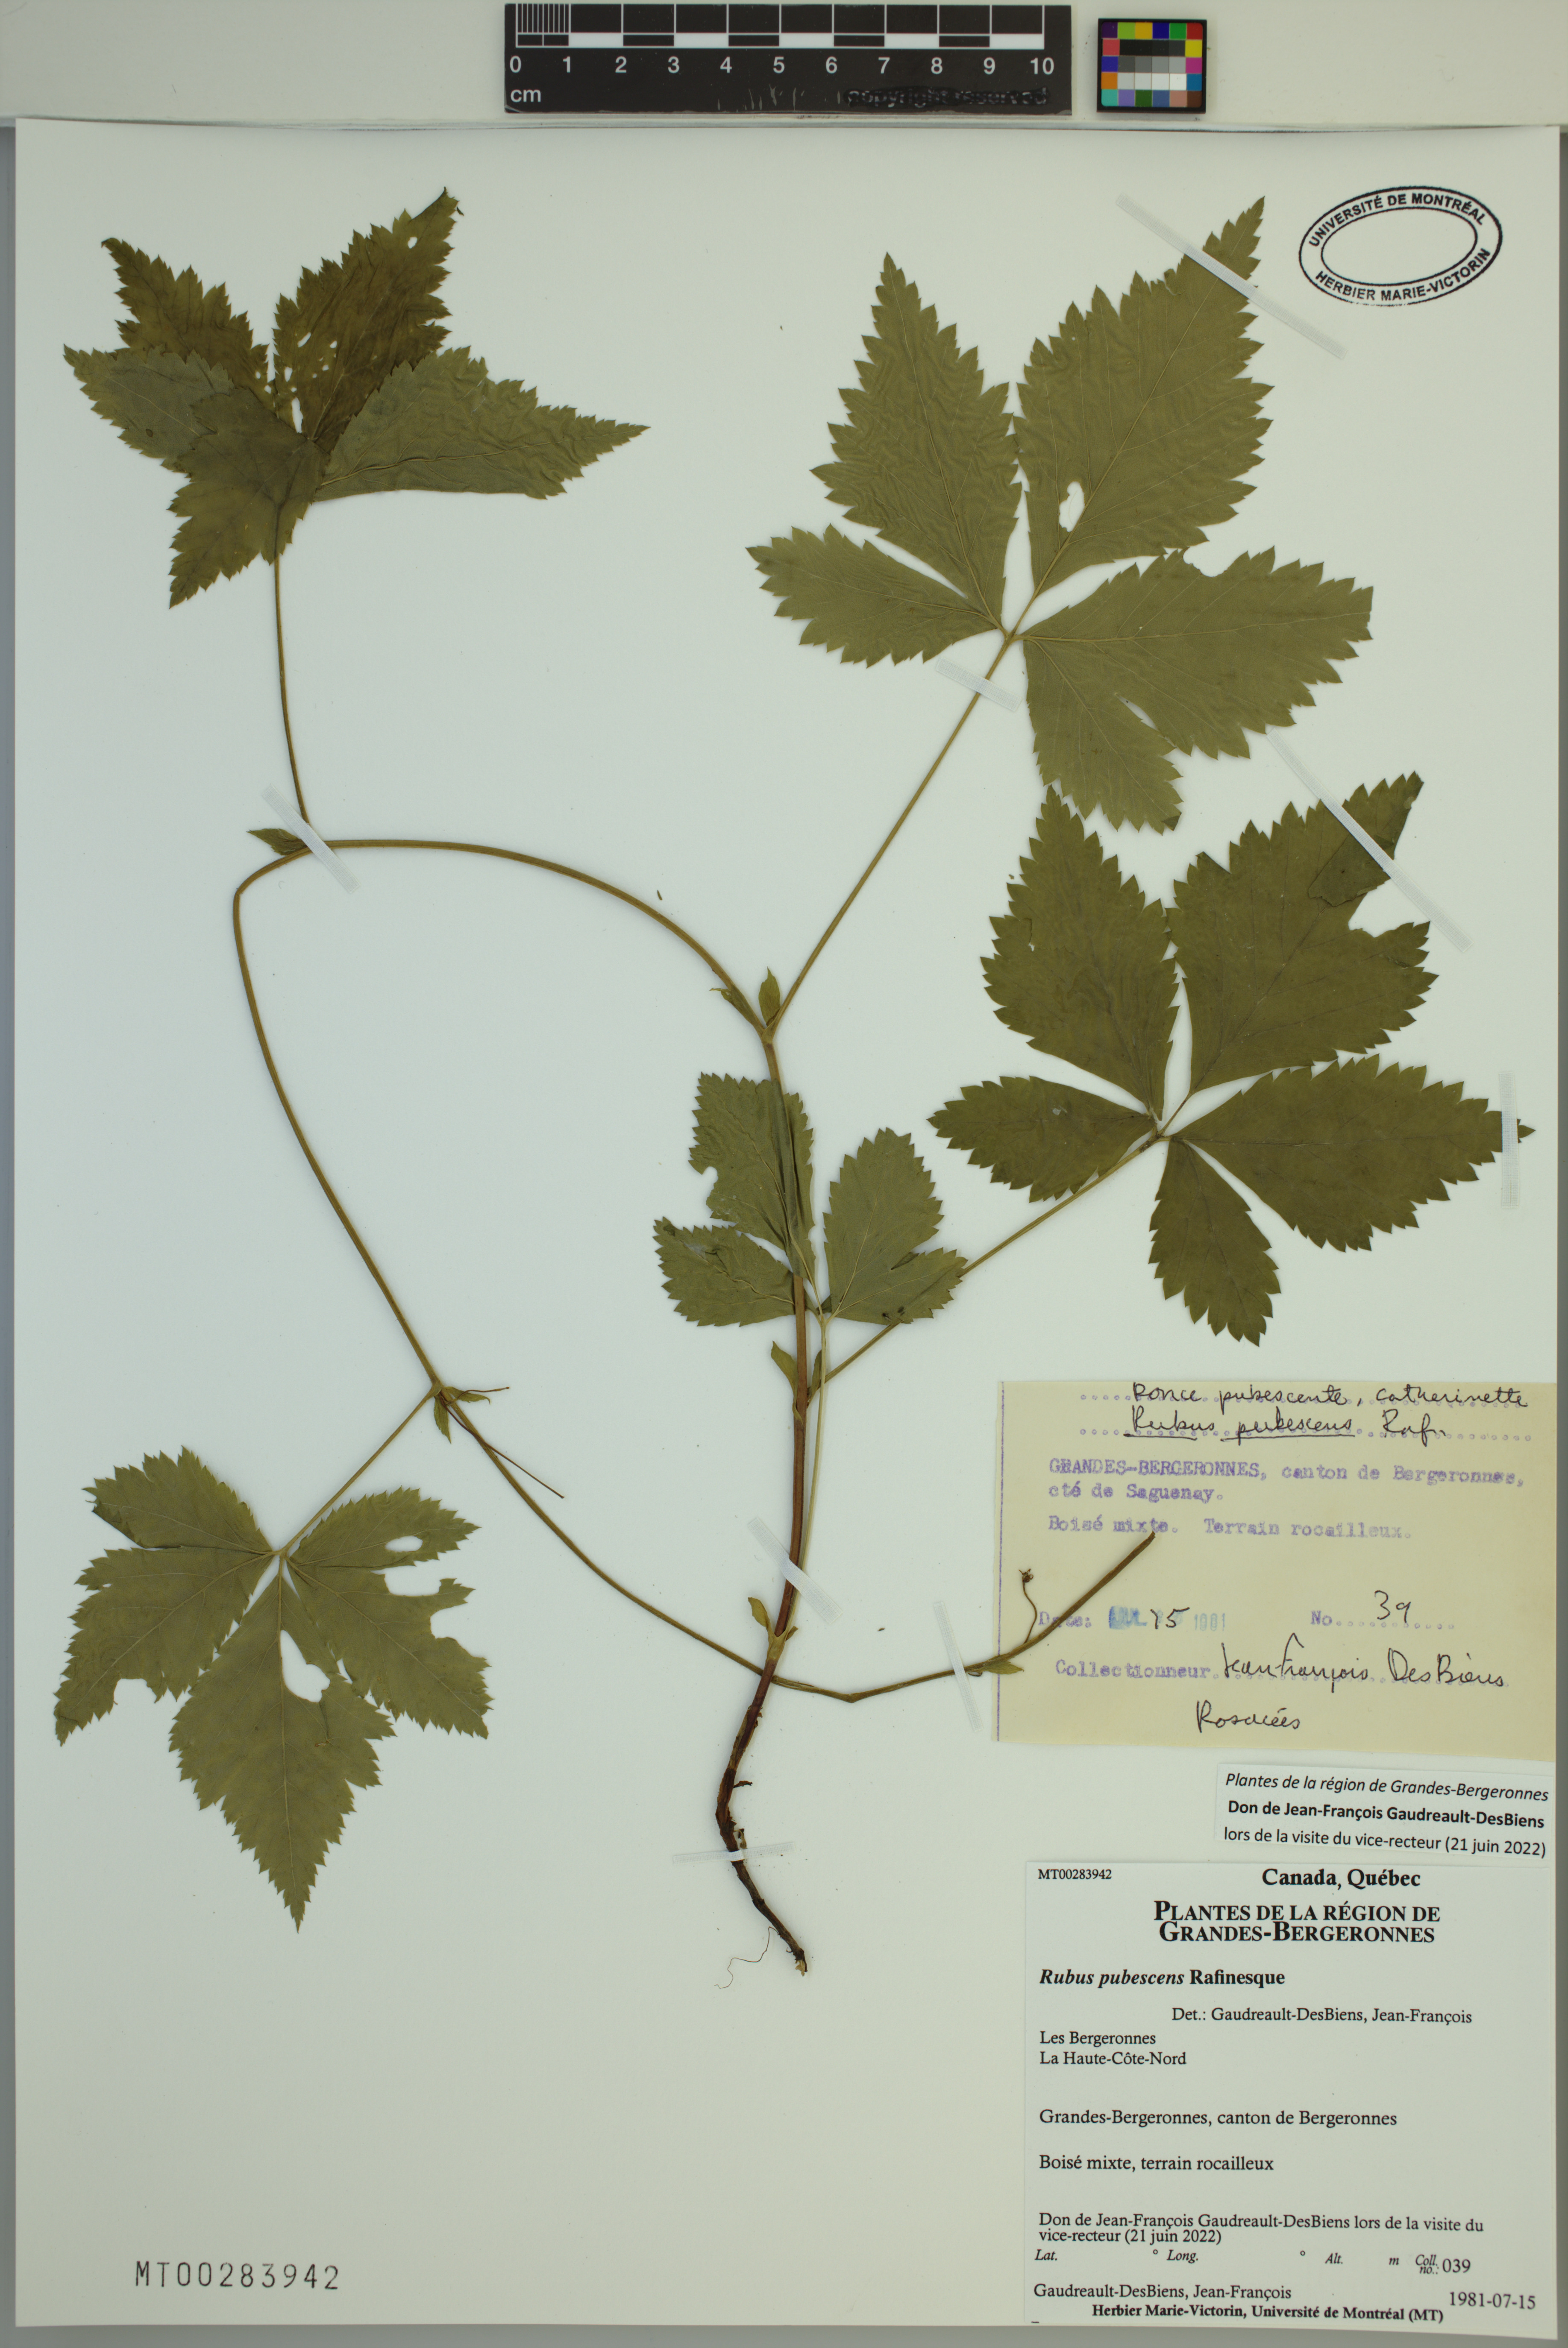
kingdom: Plantae
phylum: Tracheophyta
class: Magnoliopsida
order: Rosales
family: Rosaceae
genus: Rubus
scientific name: Rubus pubescens
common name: Dwarf raspberry
